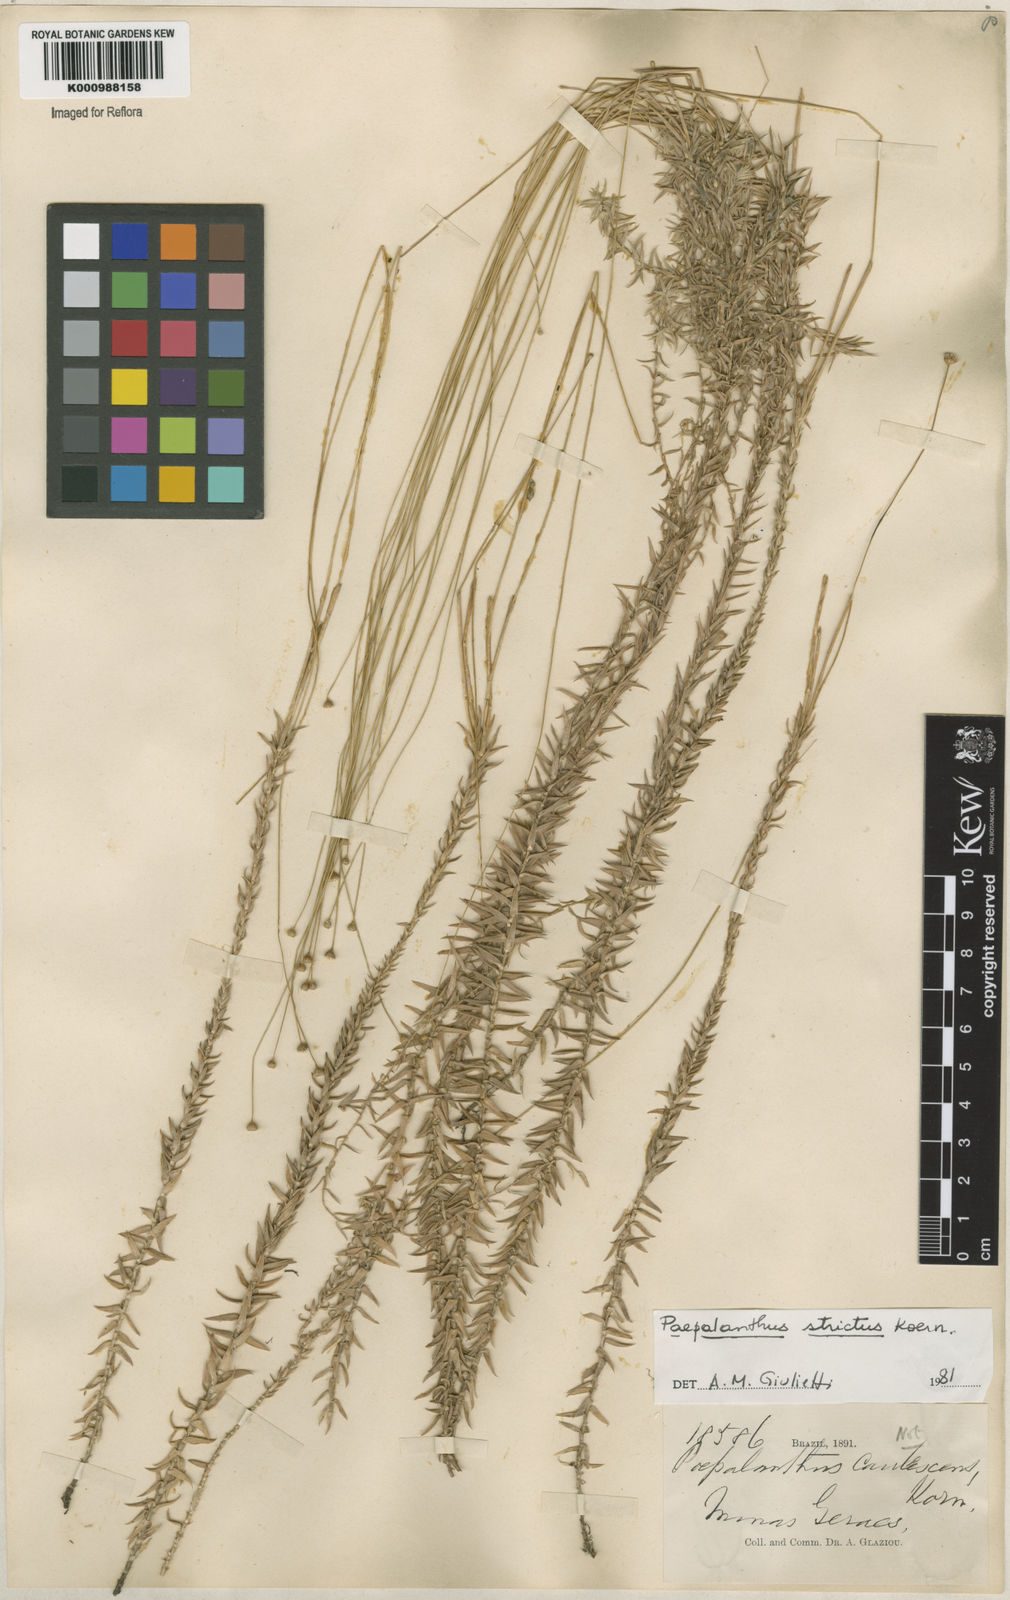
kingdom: Plantae
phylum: Tracheophyta
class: Liliopsida
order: Poales
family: Eriocaulaceae
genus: Paepalanthus
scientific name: Paepalanthus
